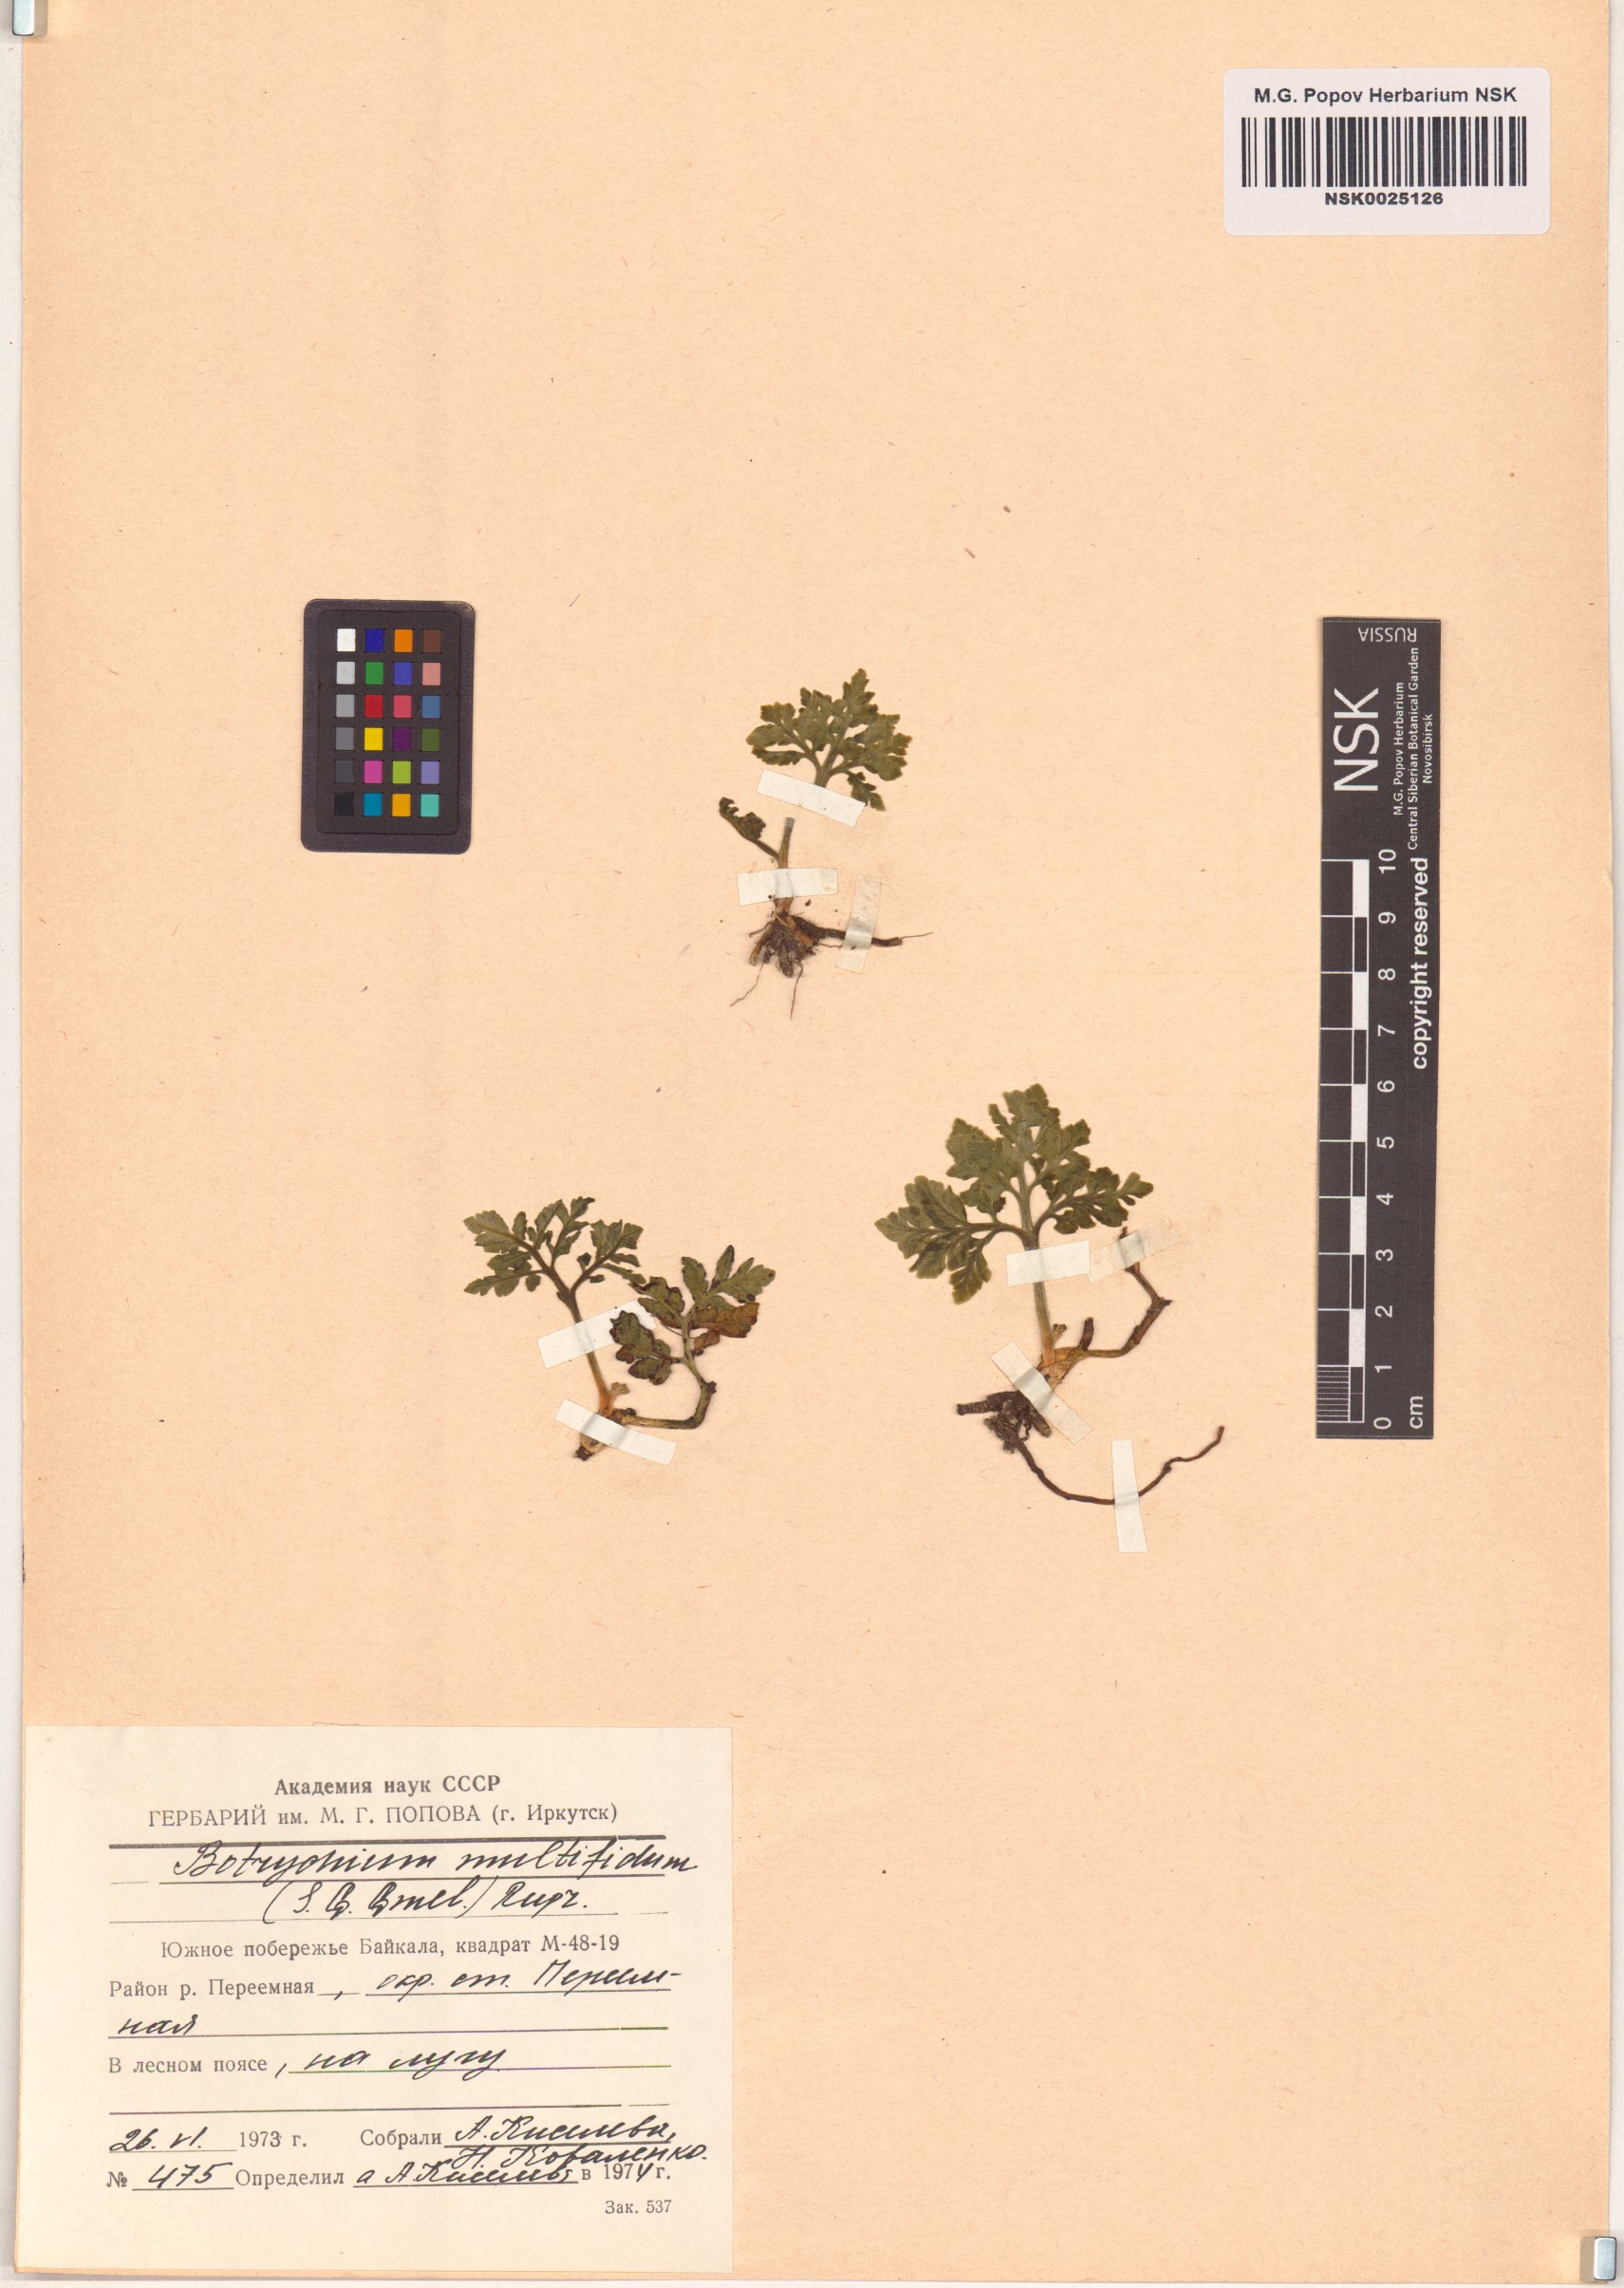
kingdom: Plantae
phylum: Tracheophyta
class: Polypodiopsida
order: Ophioglossales
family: Ophioglossaceae
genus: Sceptridium
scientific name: Sceptridium multifidum
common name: Leathery grape fern
